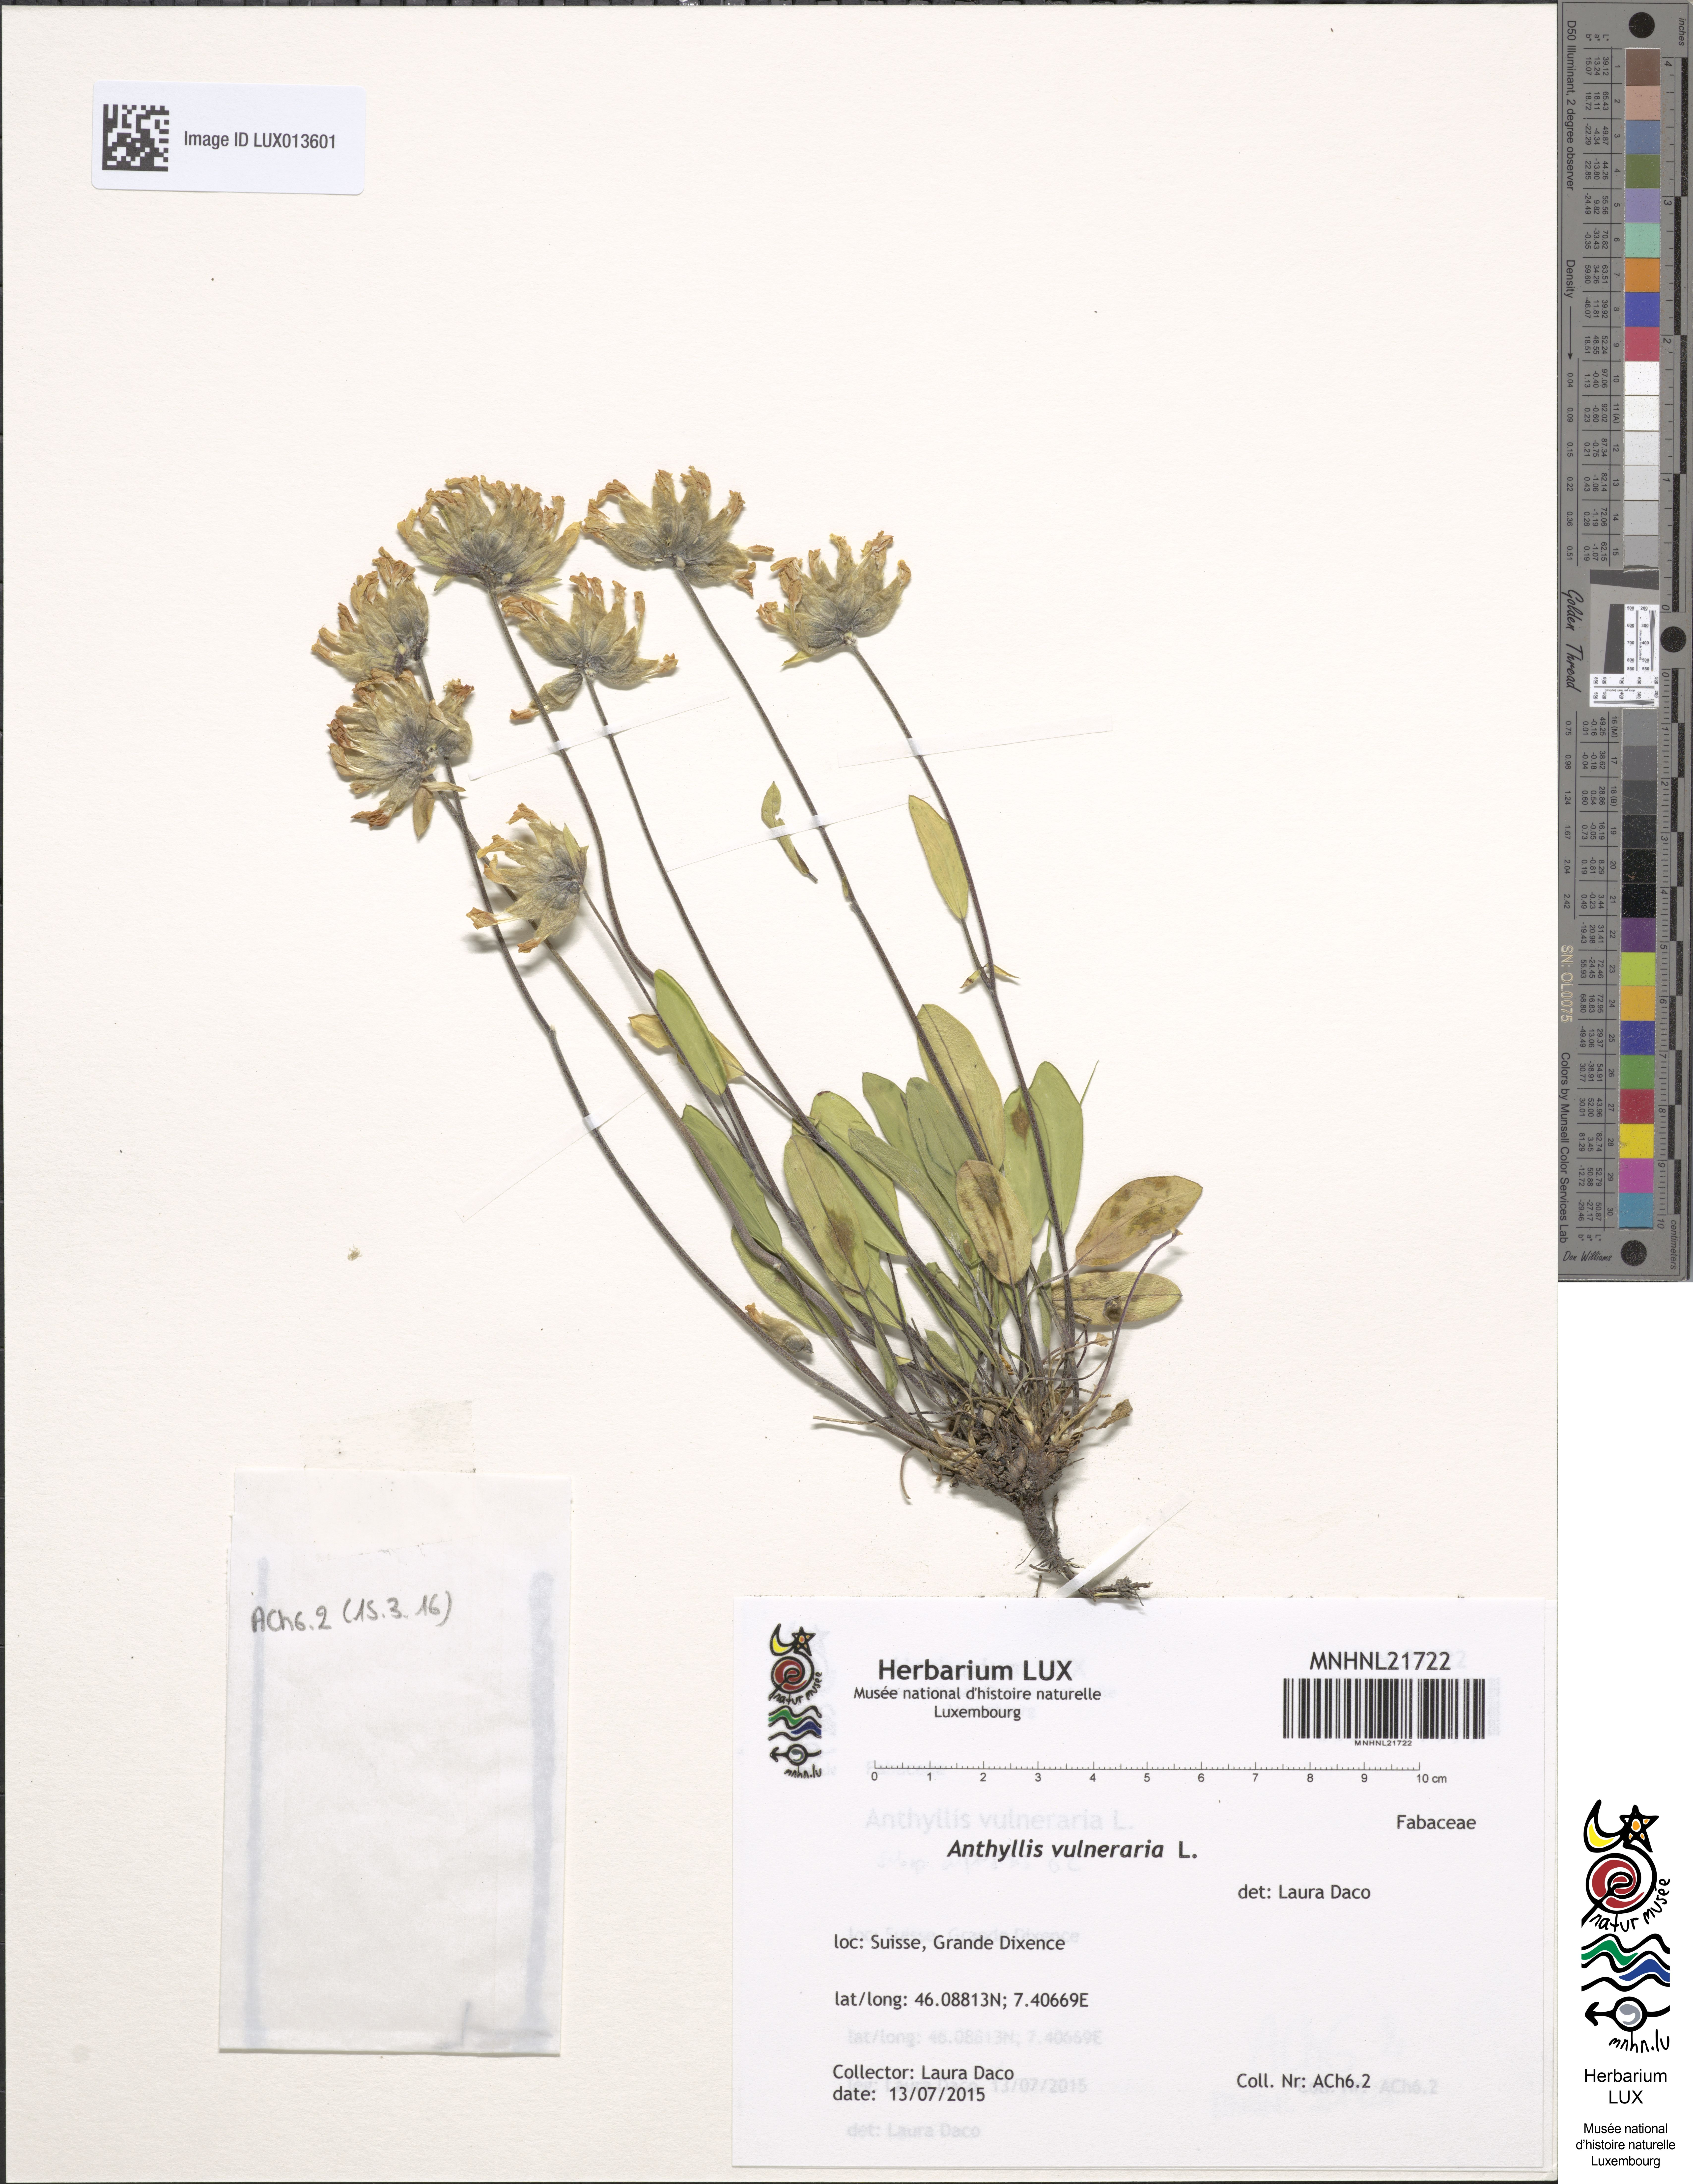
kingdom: Plantae
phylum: Tracheophyta
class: Magnoliopsida
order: Fabales
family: Fabaceae
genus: Anthyllis
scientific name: Anthyllis vulneraria
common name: Kidney vetch
